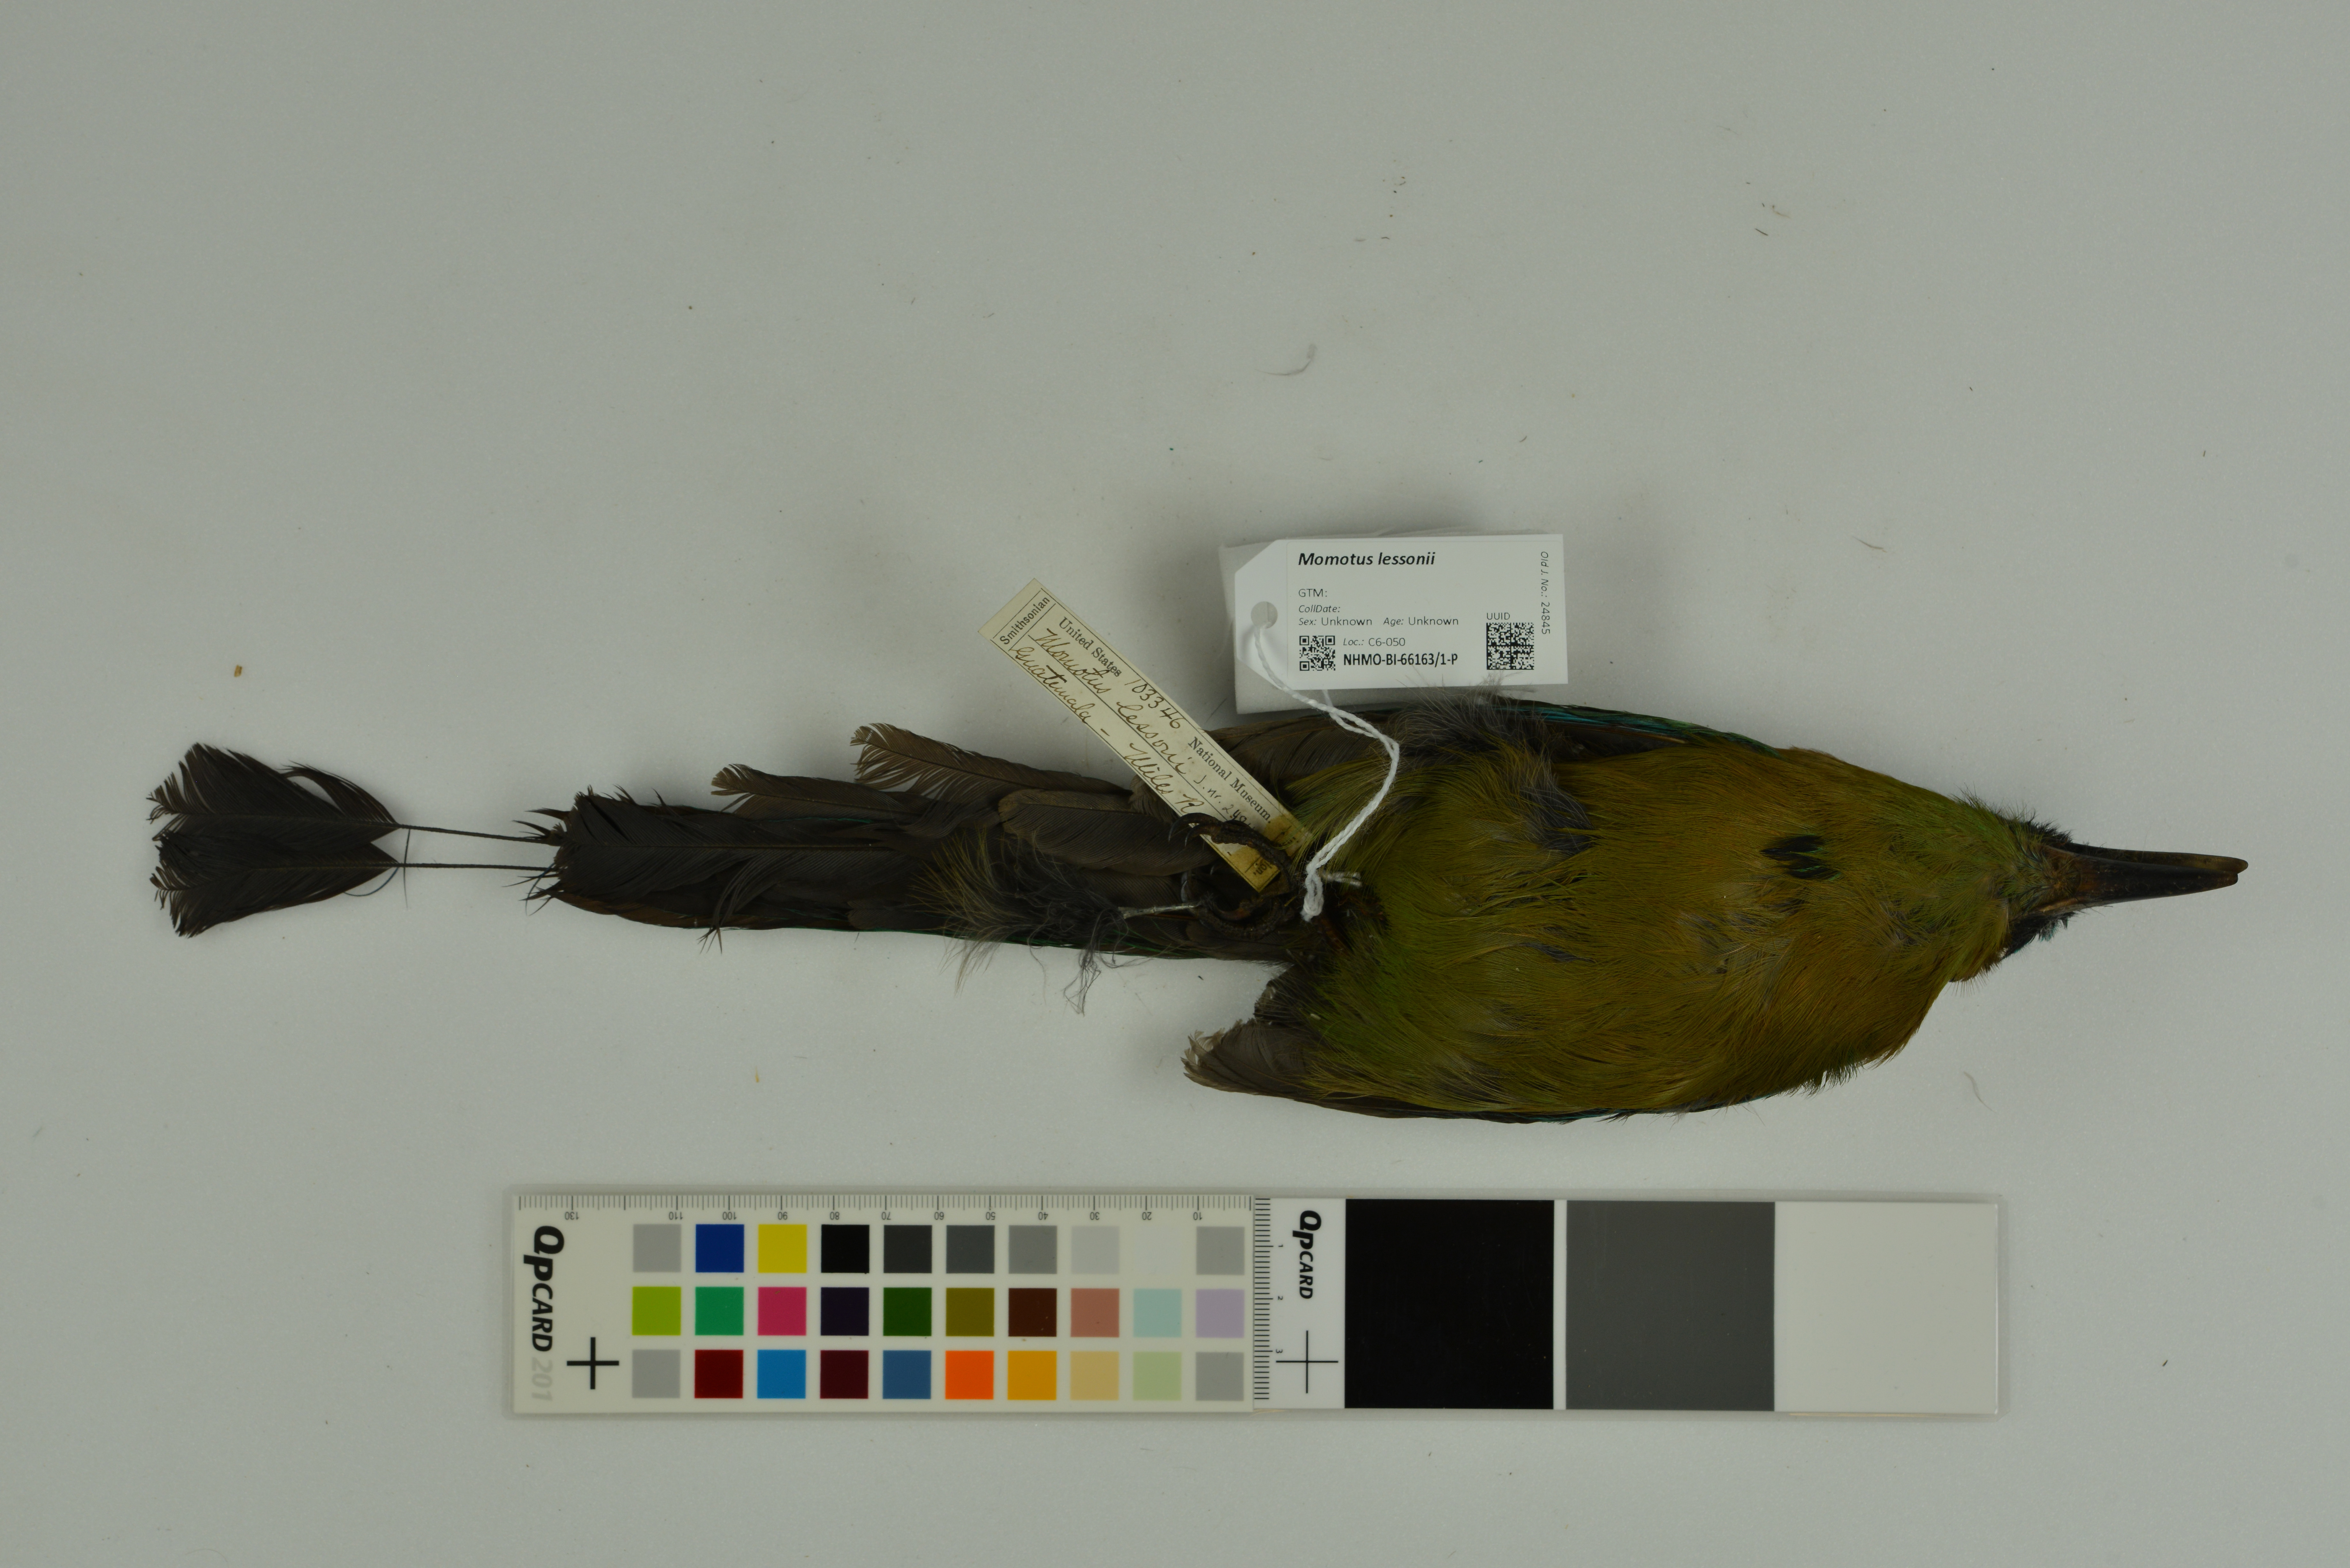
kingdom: Animalia
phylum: Chordata
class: Aves
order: Coraciiformes
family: Momotidae
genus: Momotus
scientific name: Momotus lessonii
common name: Lesson's motmot
